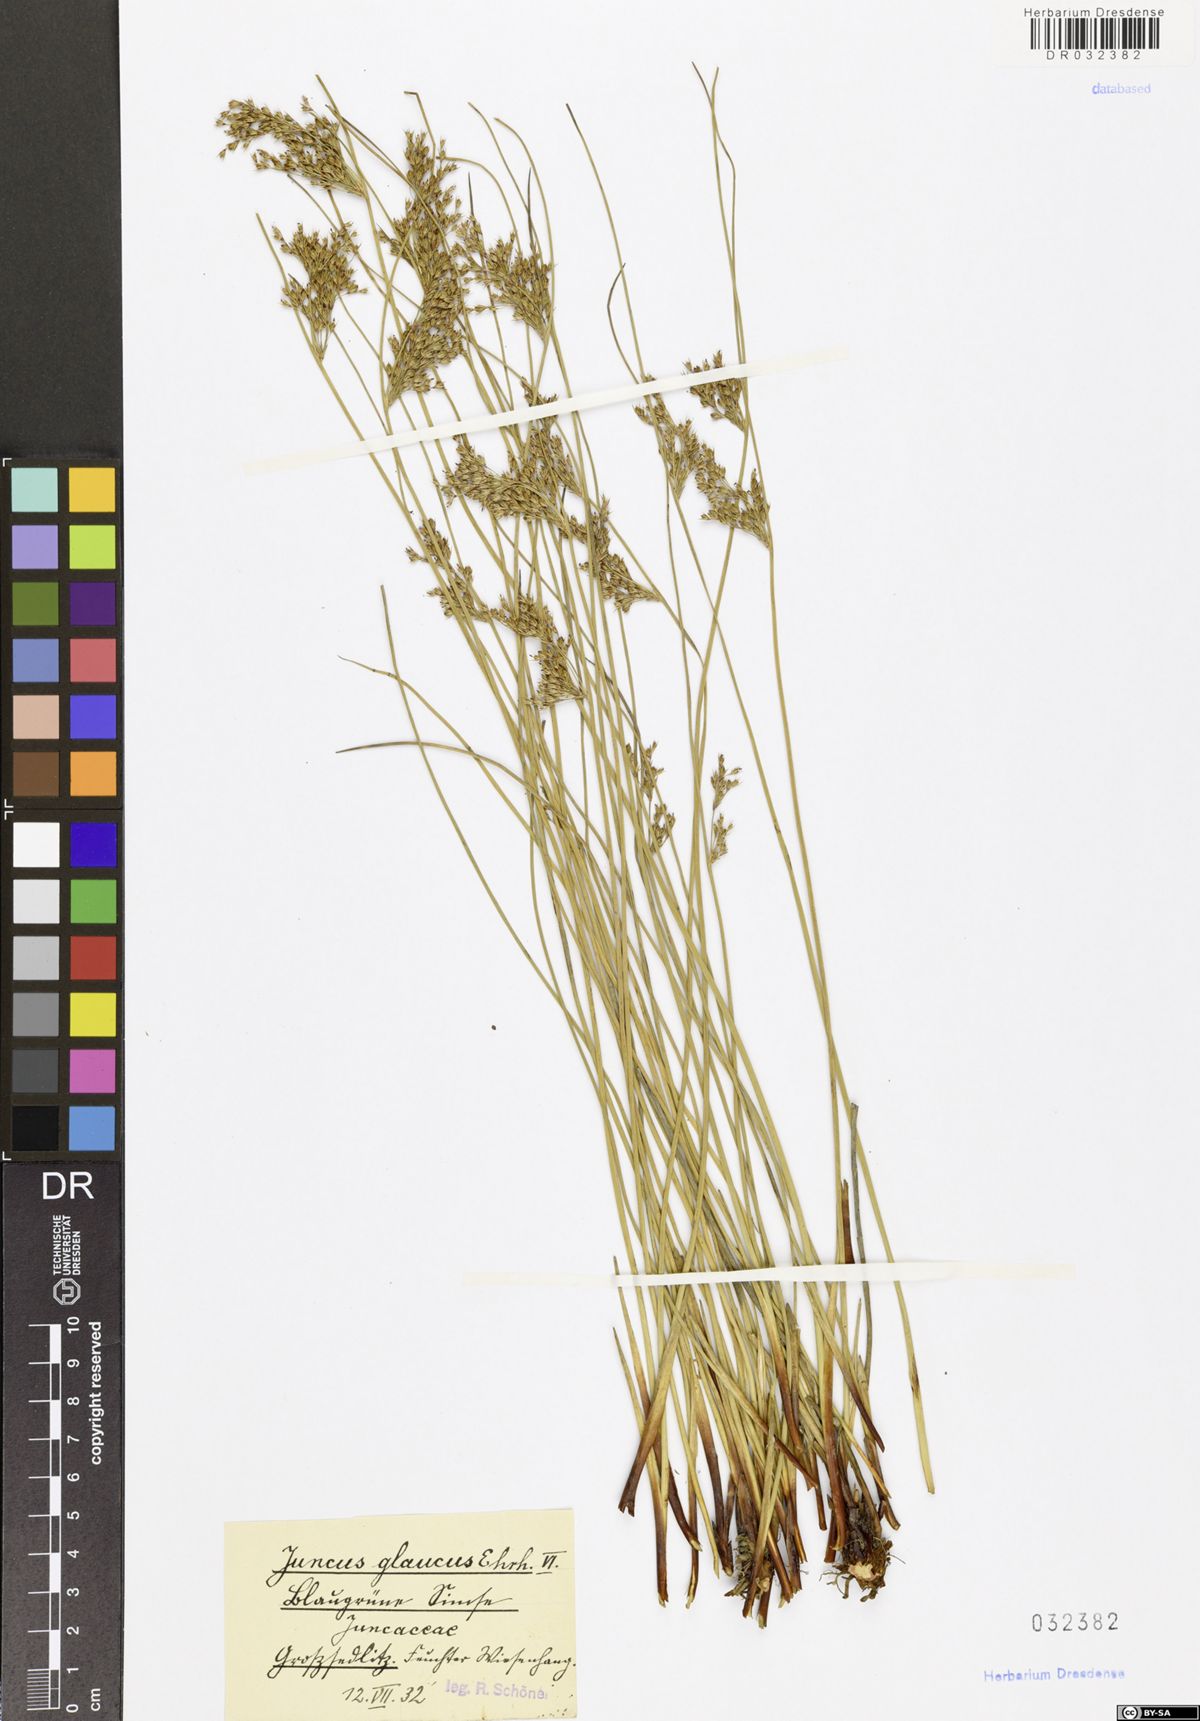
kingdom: Plantae
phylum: Tracheophyta
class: Liliopsida
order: Poales
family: Juncaceae
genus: Juncus
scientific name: Juncus inflexus
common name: Hard rush
